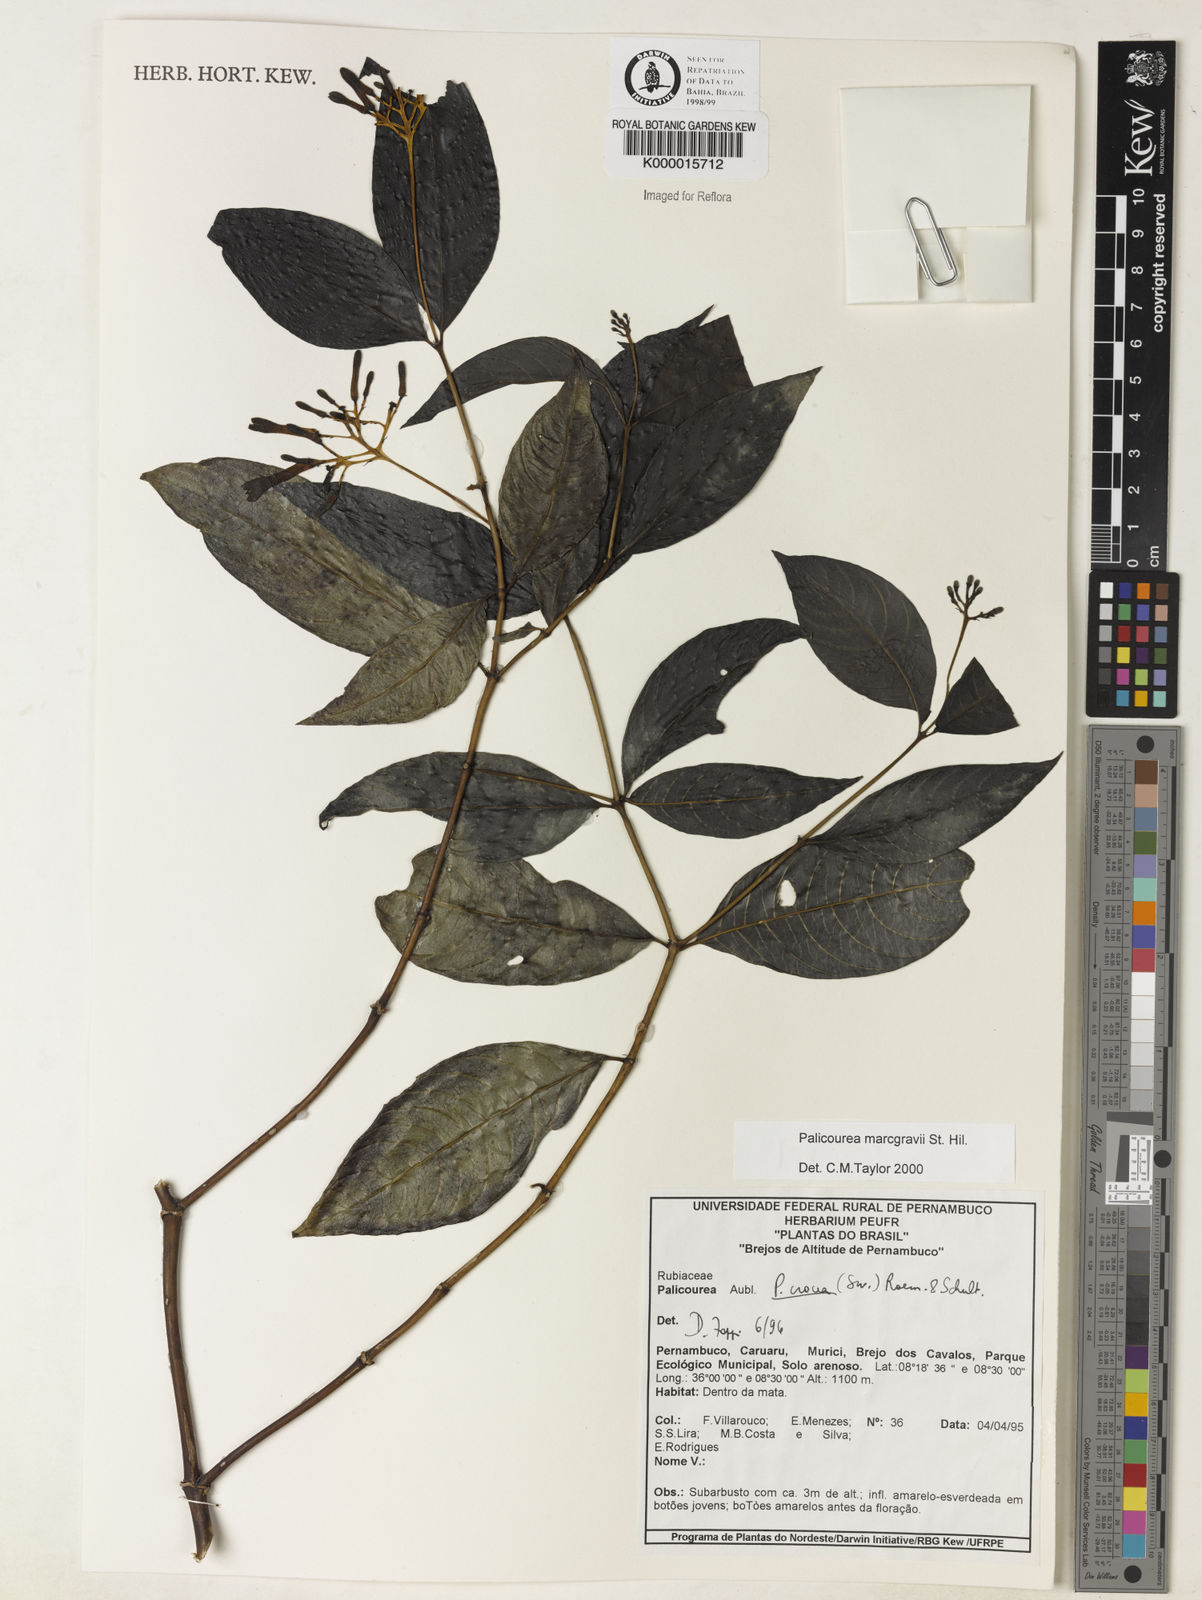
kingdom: Plantae
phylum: Tracheophyta
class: Magnoliopsida
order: Gentianales
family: Rubiaceae
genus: Palicourea
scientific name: Palicourea marcgravii
